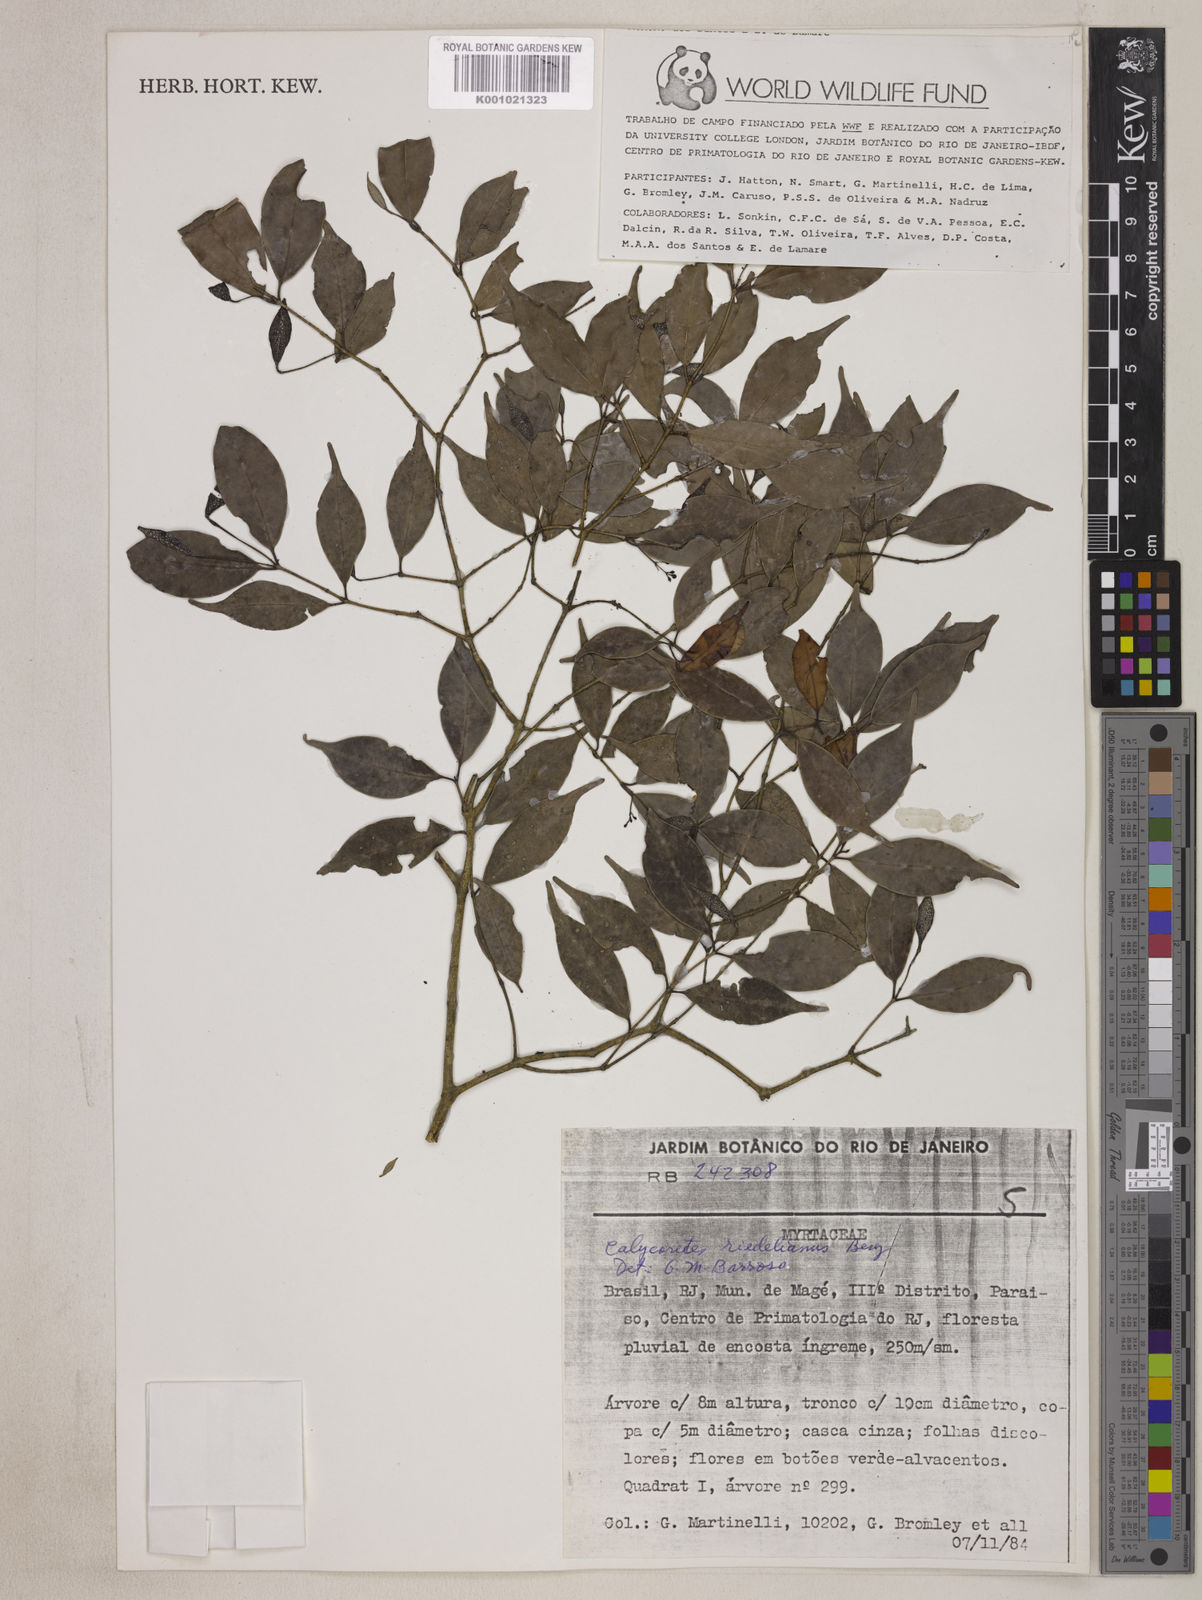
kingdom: Plantae
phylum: Tracheophyta
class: Magnoliopsida
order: Myrtales
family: Myrtaceae
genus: Marlierea
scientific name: Marlierea
